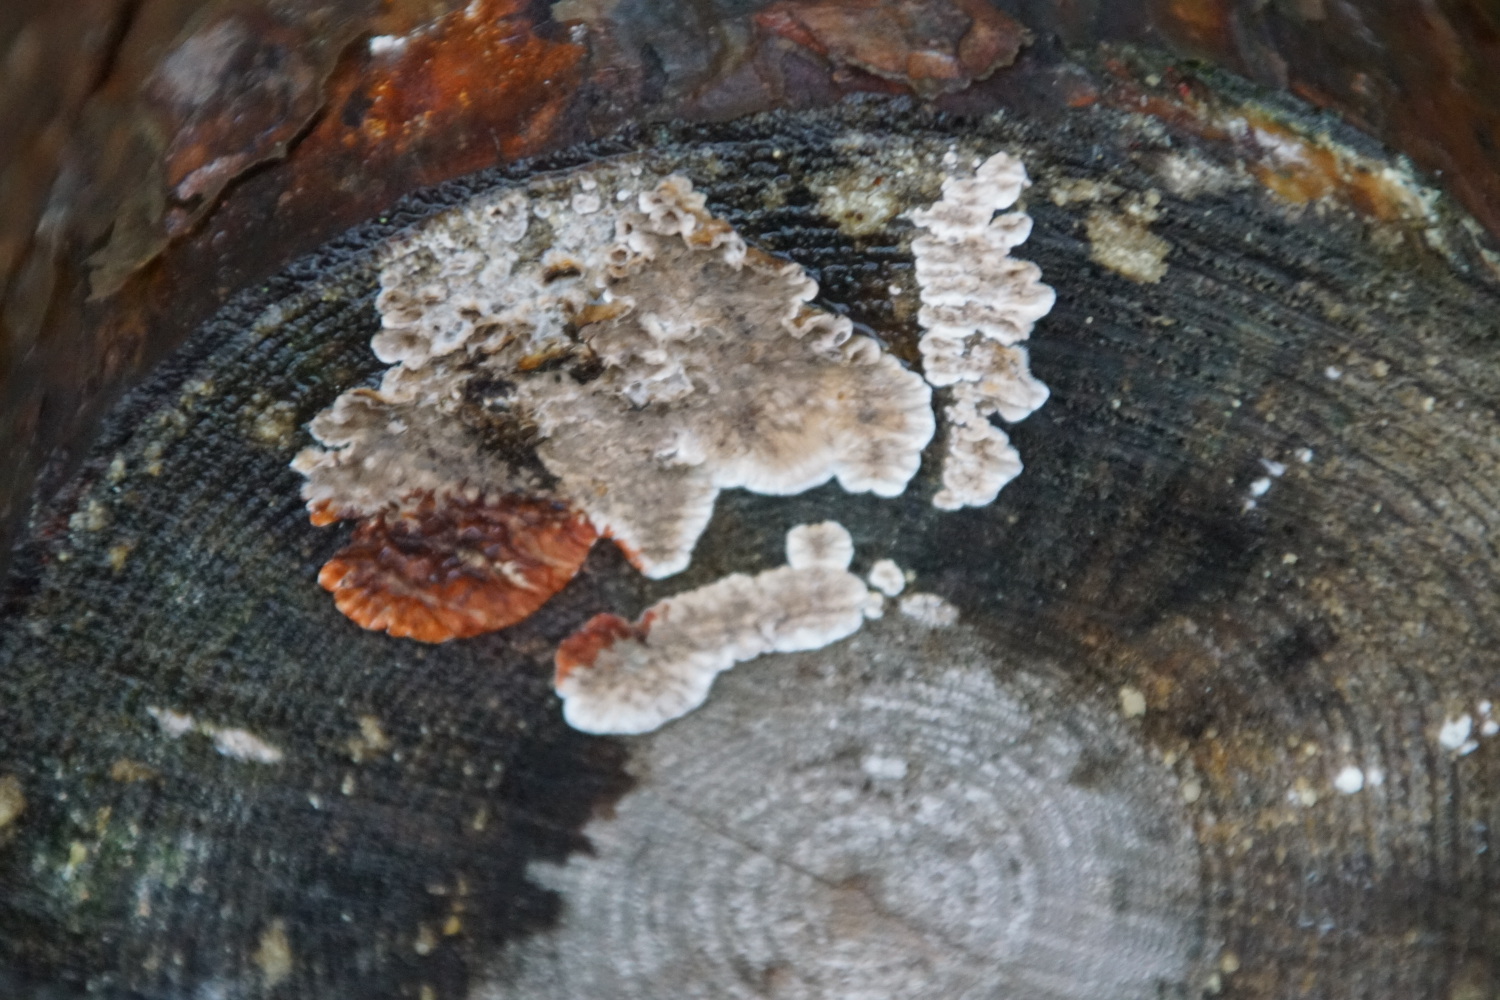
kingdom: Fungi
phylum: Basidiomycota
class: Agaricomycetes
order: Russulales
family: Stereaceae
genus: Stereum
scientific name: Stereum sanguinolentum
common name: blødende lædersvamp
